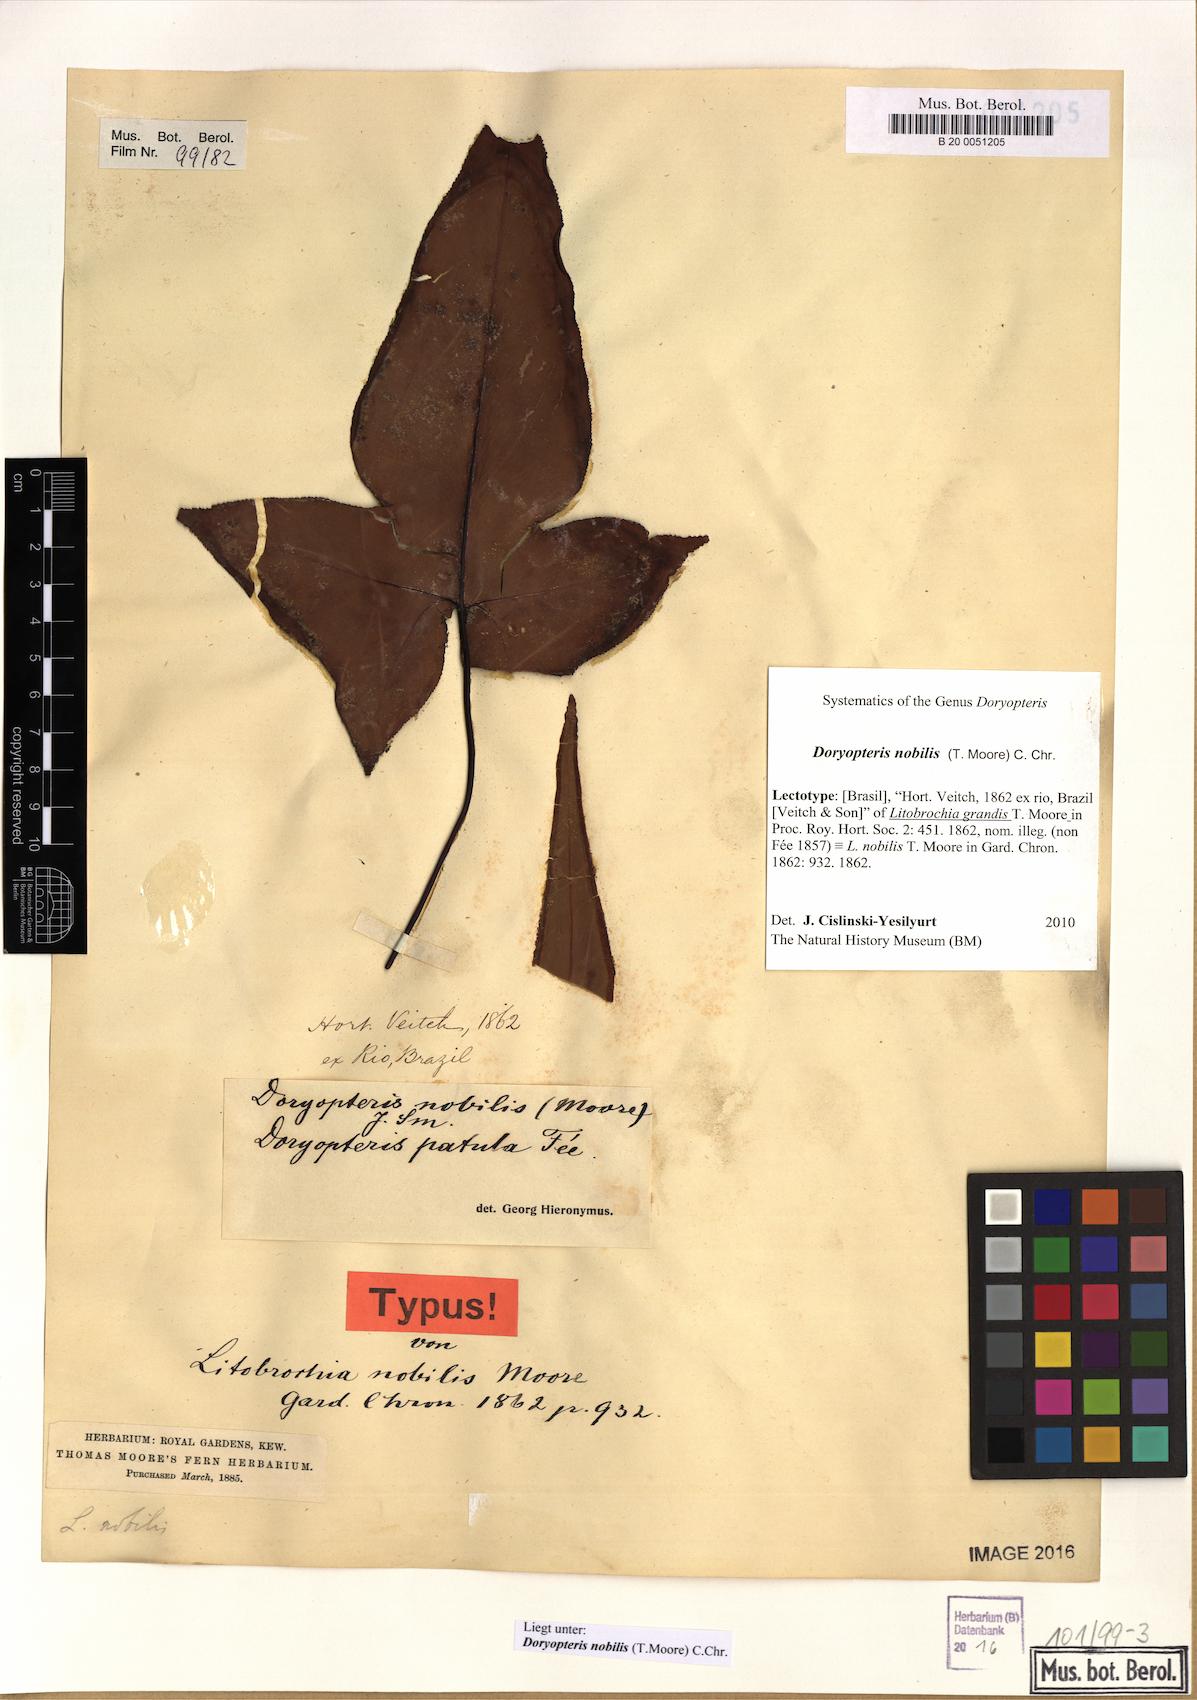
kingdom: Plantae
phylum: Tracheophyta
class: Polypodiopsida
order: Polypodiales
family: Pteridaceae
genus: Doryopteris
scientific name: Doryopteris nobilis
